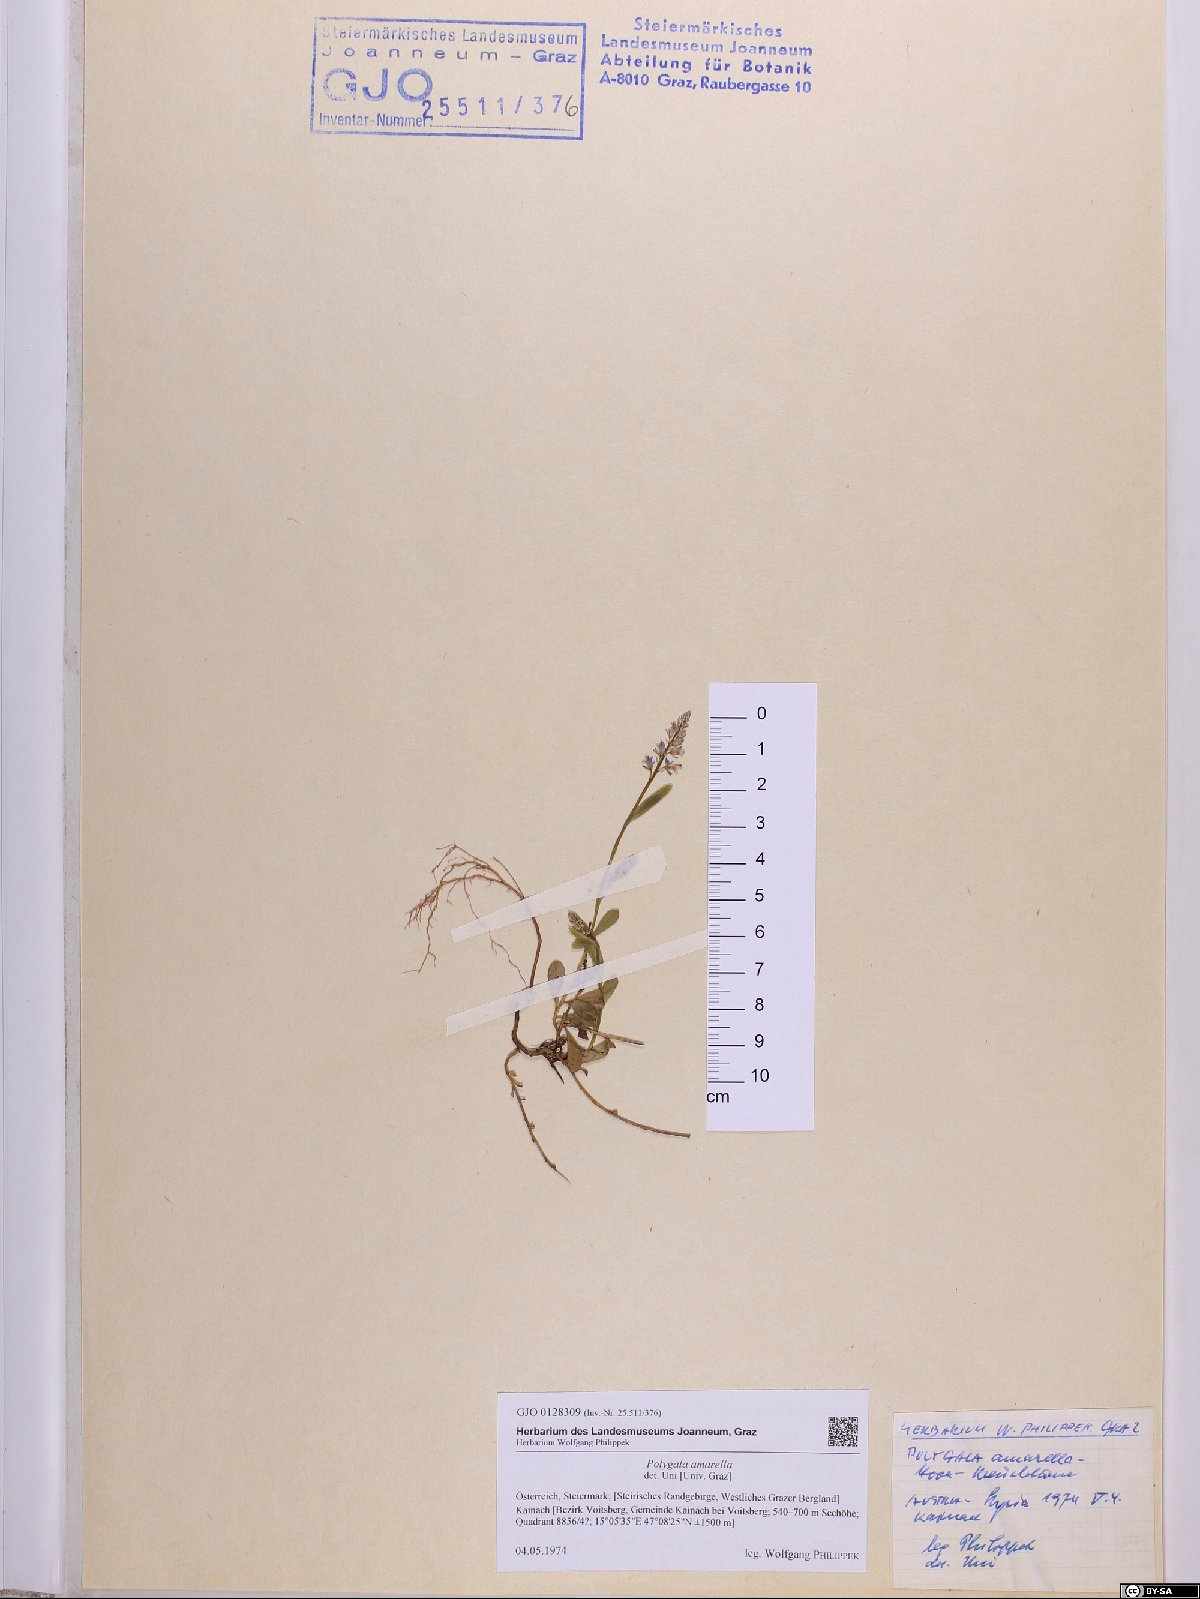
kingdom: Plantae
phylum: Tracheophyta
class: Magnoliopsida
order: Fabales
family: Polygalaceae
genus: Polygala
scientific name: Polygala amarella
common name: Dwarf milkwort
